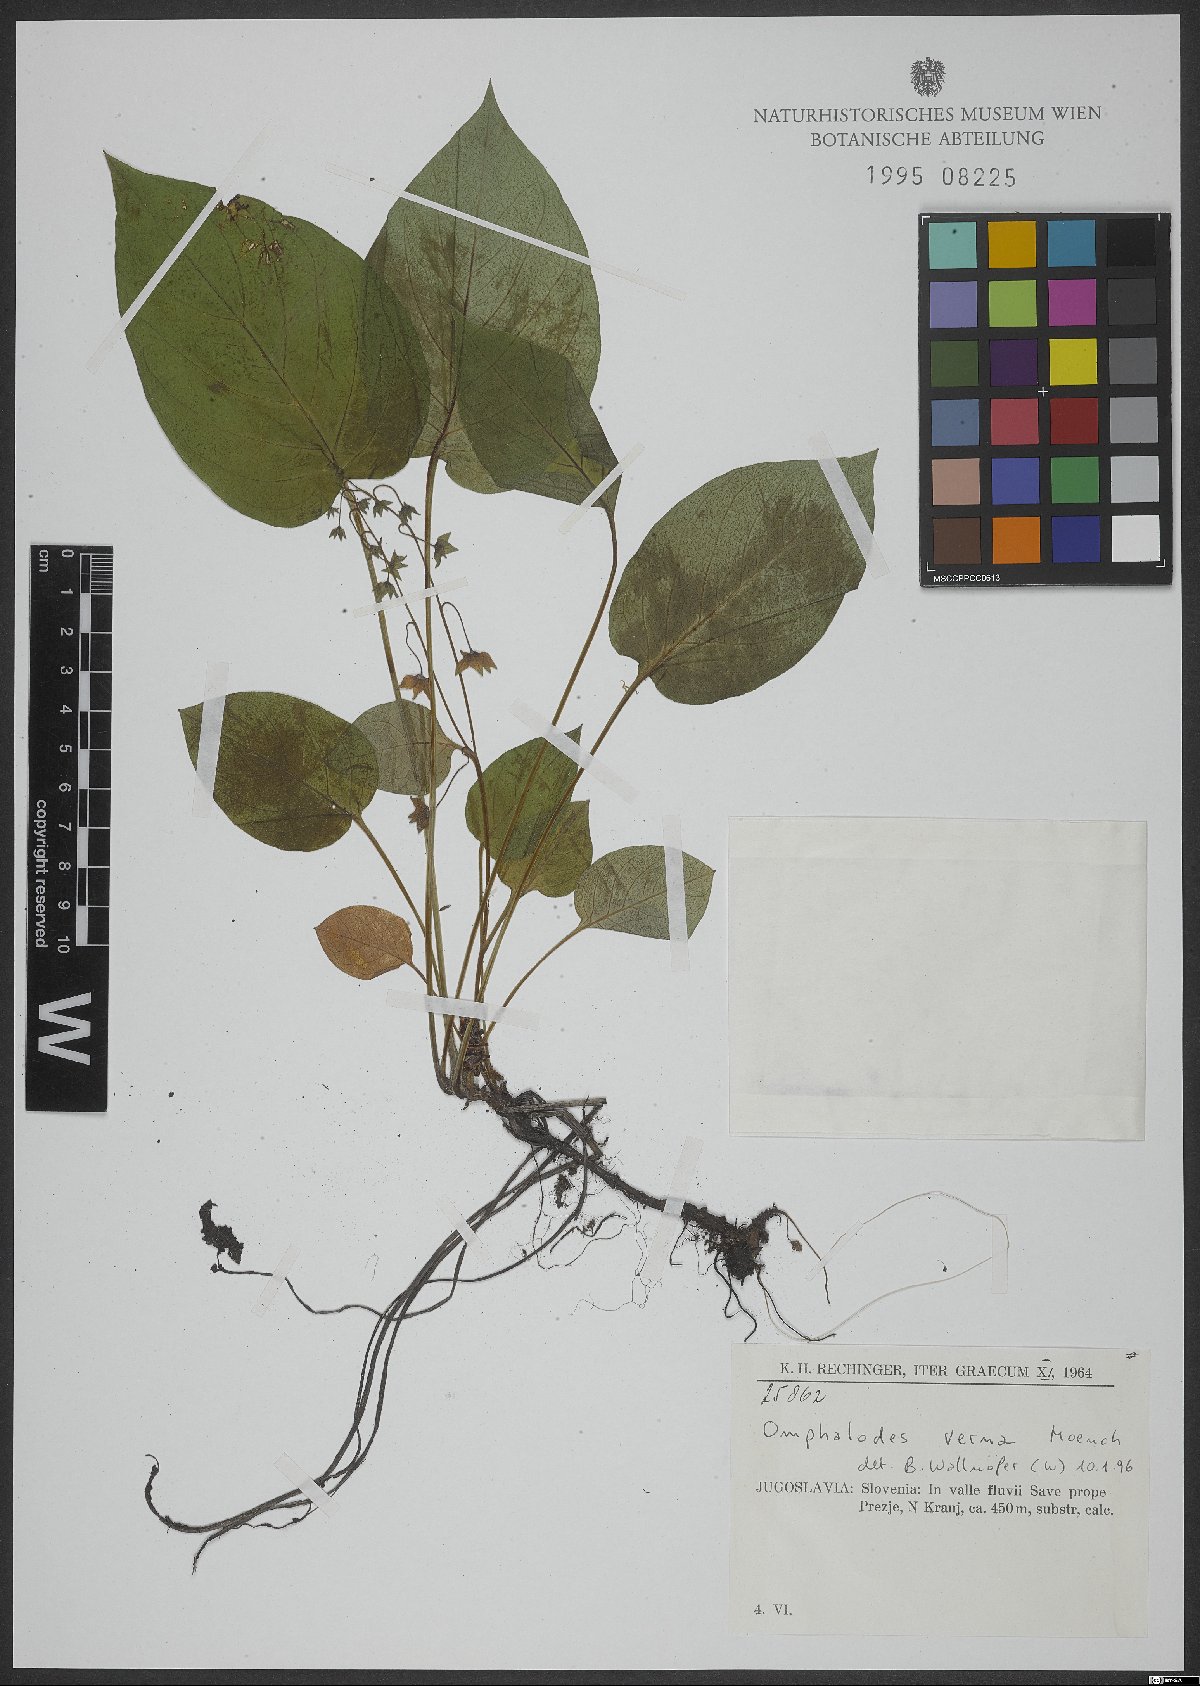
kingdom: Plantae
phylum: Tracheophyta
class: Magnoliopsida
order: Boraginales
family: Boraginaceae
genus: Omphalodes
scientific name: Omphalodes verna
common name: Blue-eyed-mary
